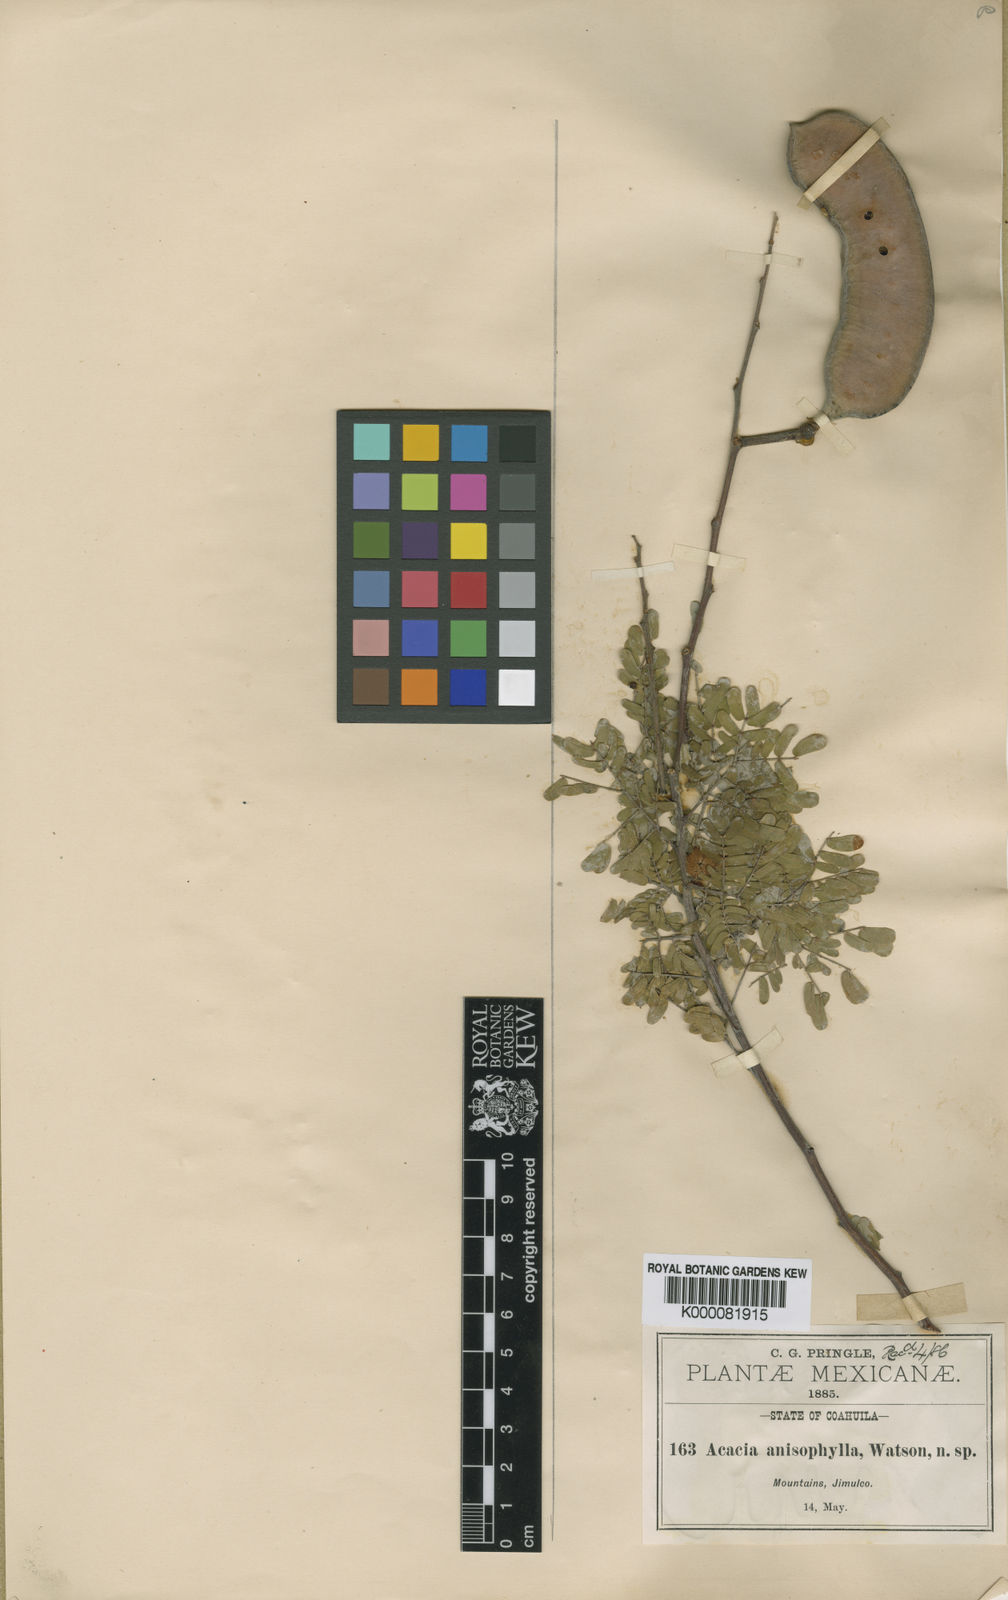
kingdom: Plantae
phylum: Tracheophyta
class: Magnoliopsida
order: Fabales
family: Fabaceae
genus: Senegalia
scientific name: Senegalia anisophylla
